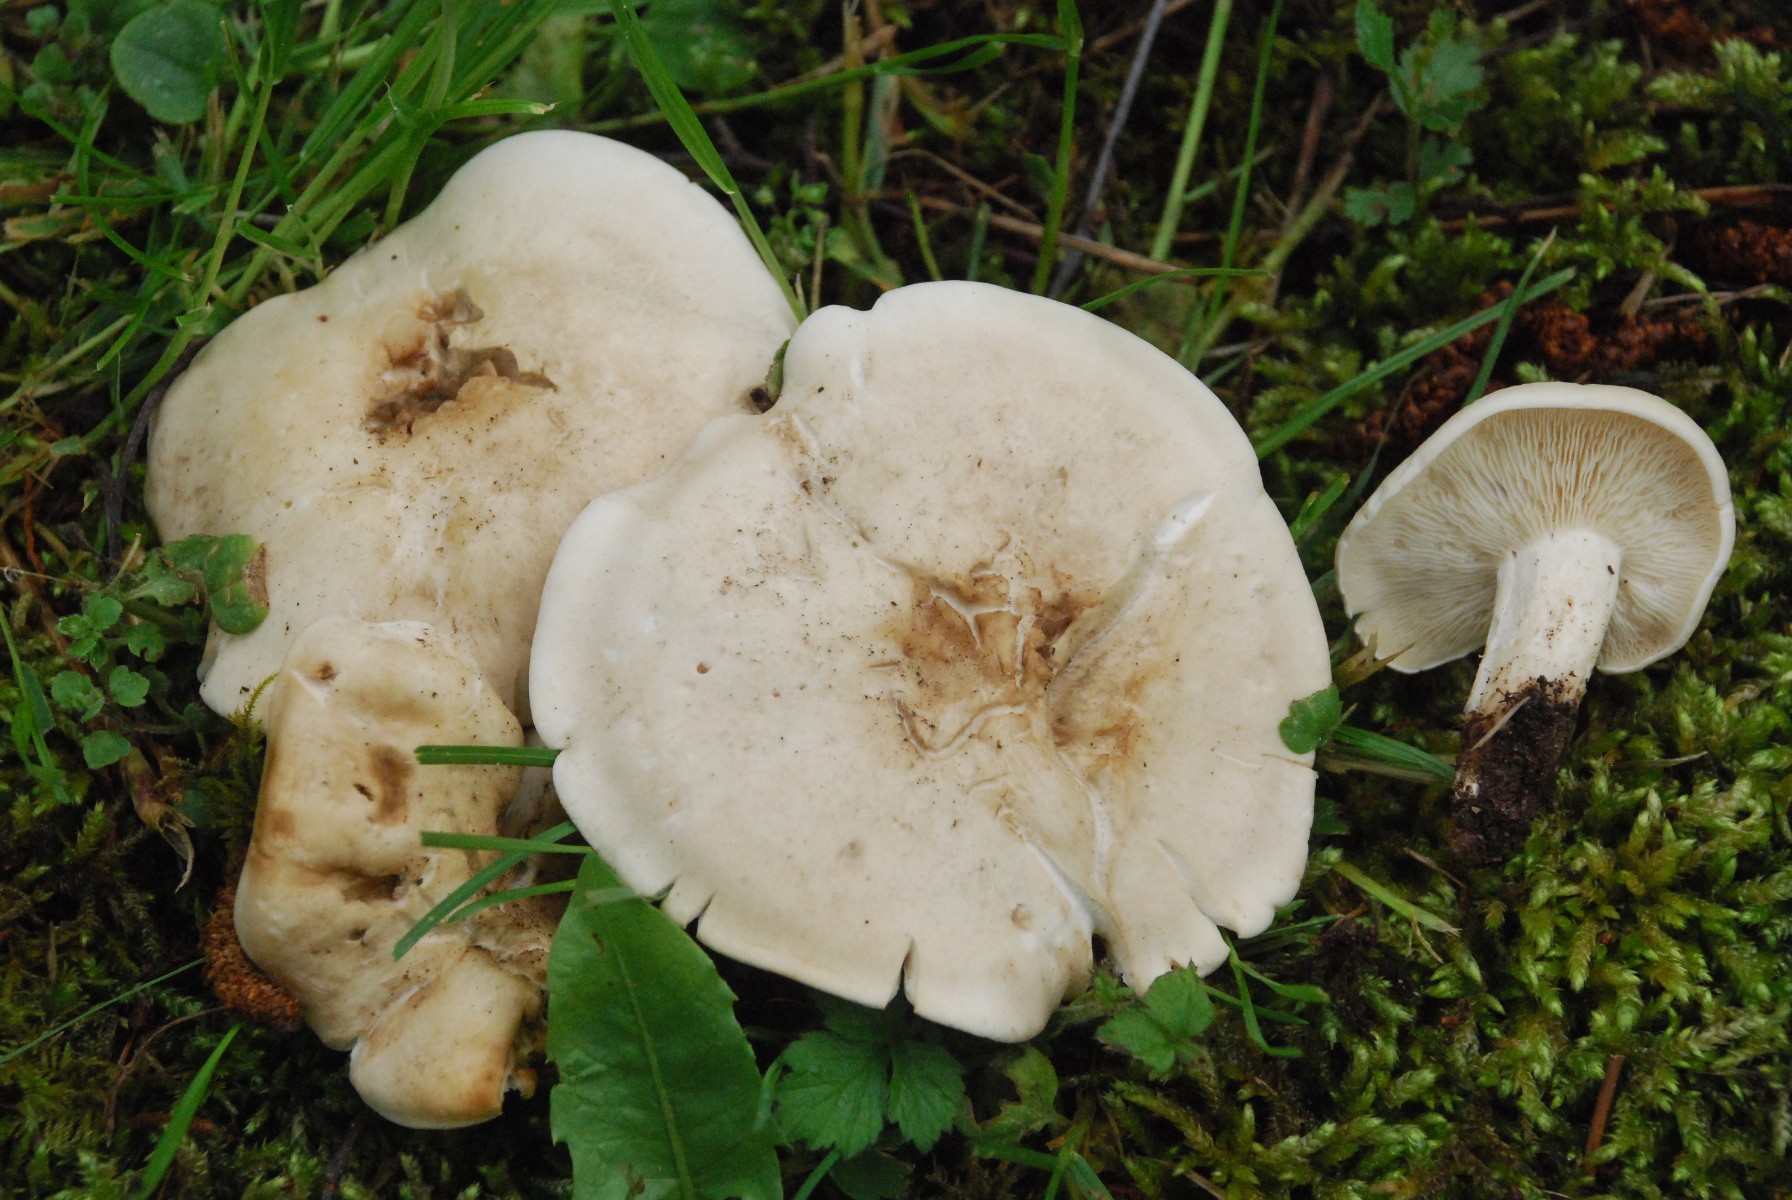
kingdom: Fungi
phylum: Basidiomycota
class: Agaricomycetes
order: Agaricales
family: Lyophyllaceae
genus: Calocybe
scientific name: Calocybe gambosa
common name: vårmusseron
